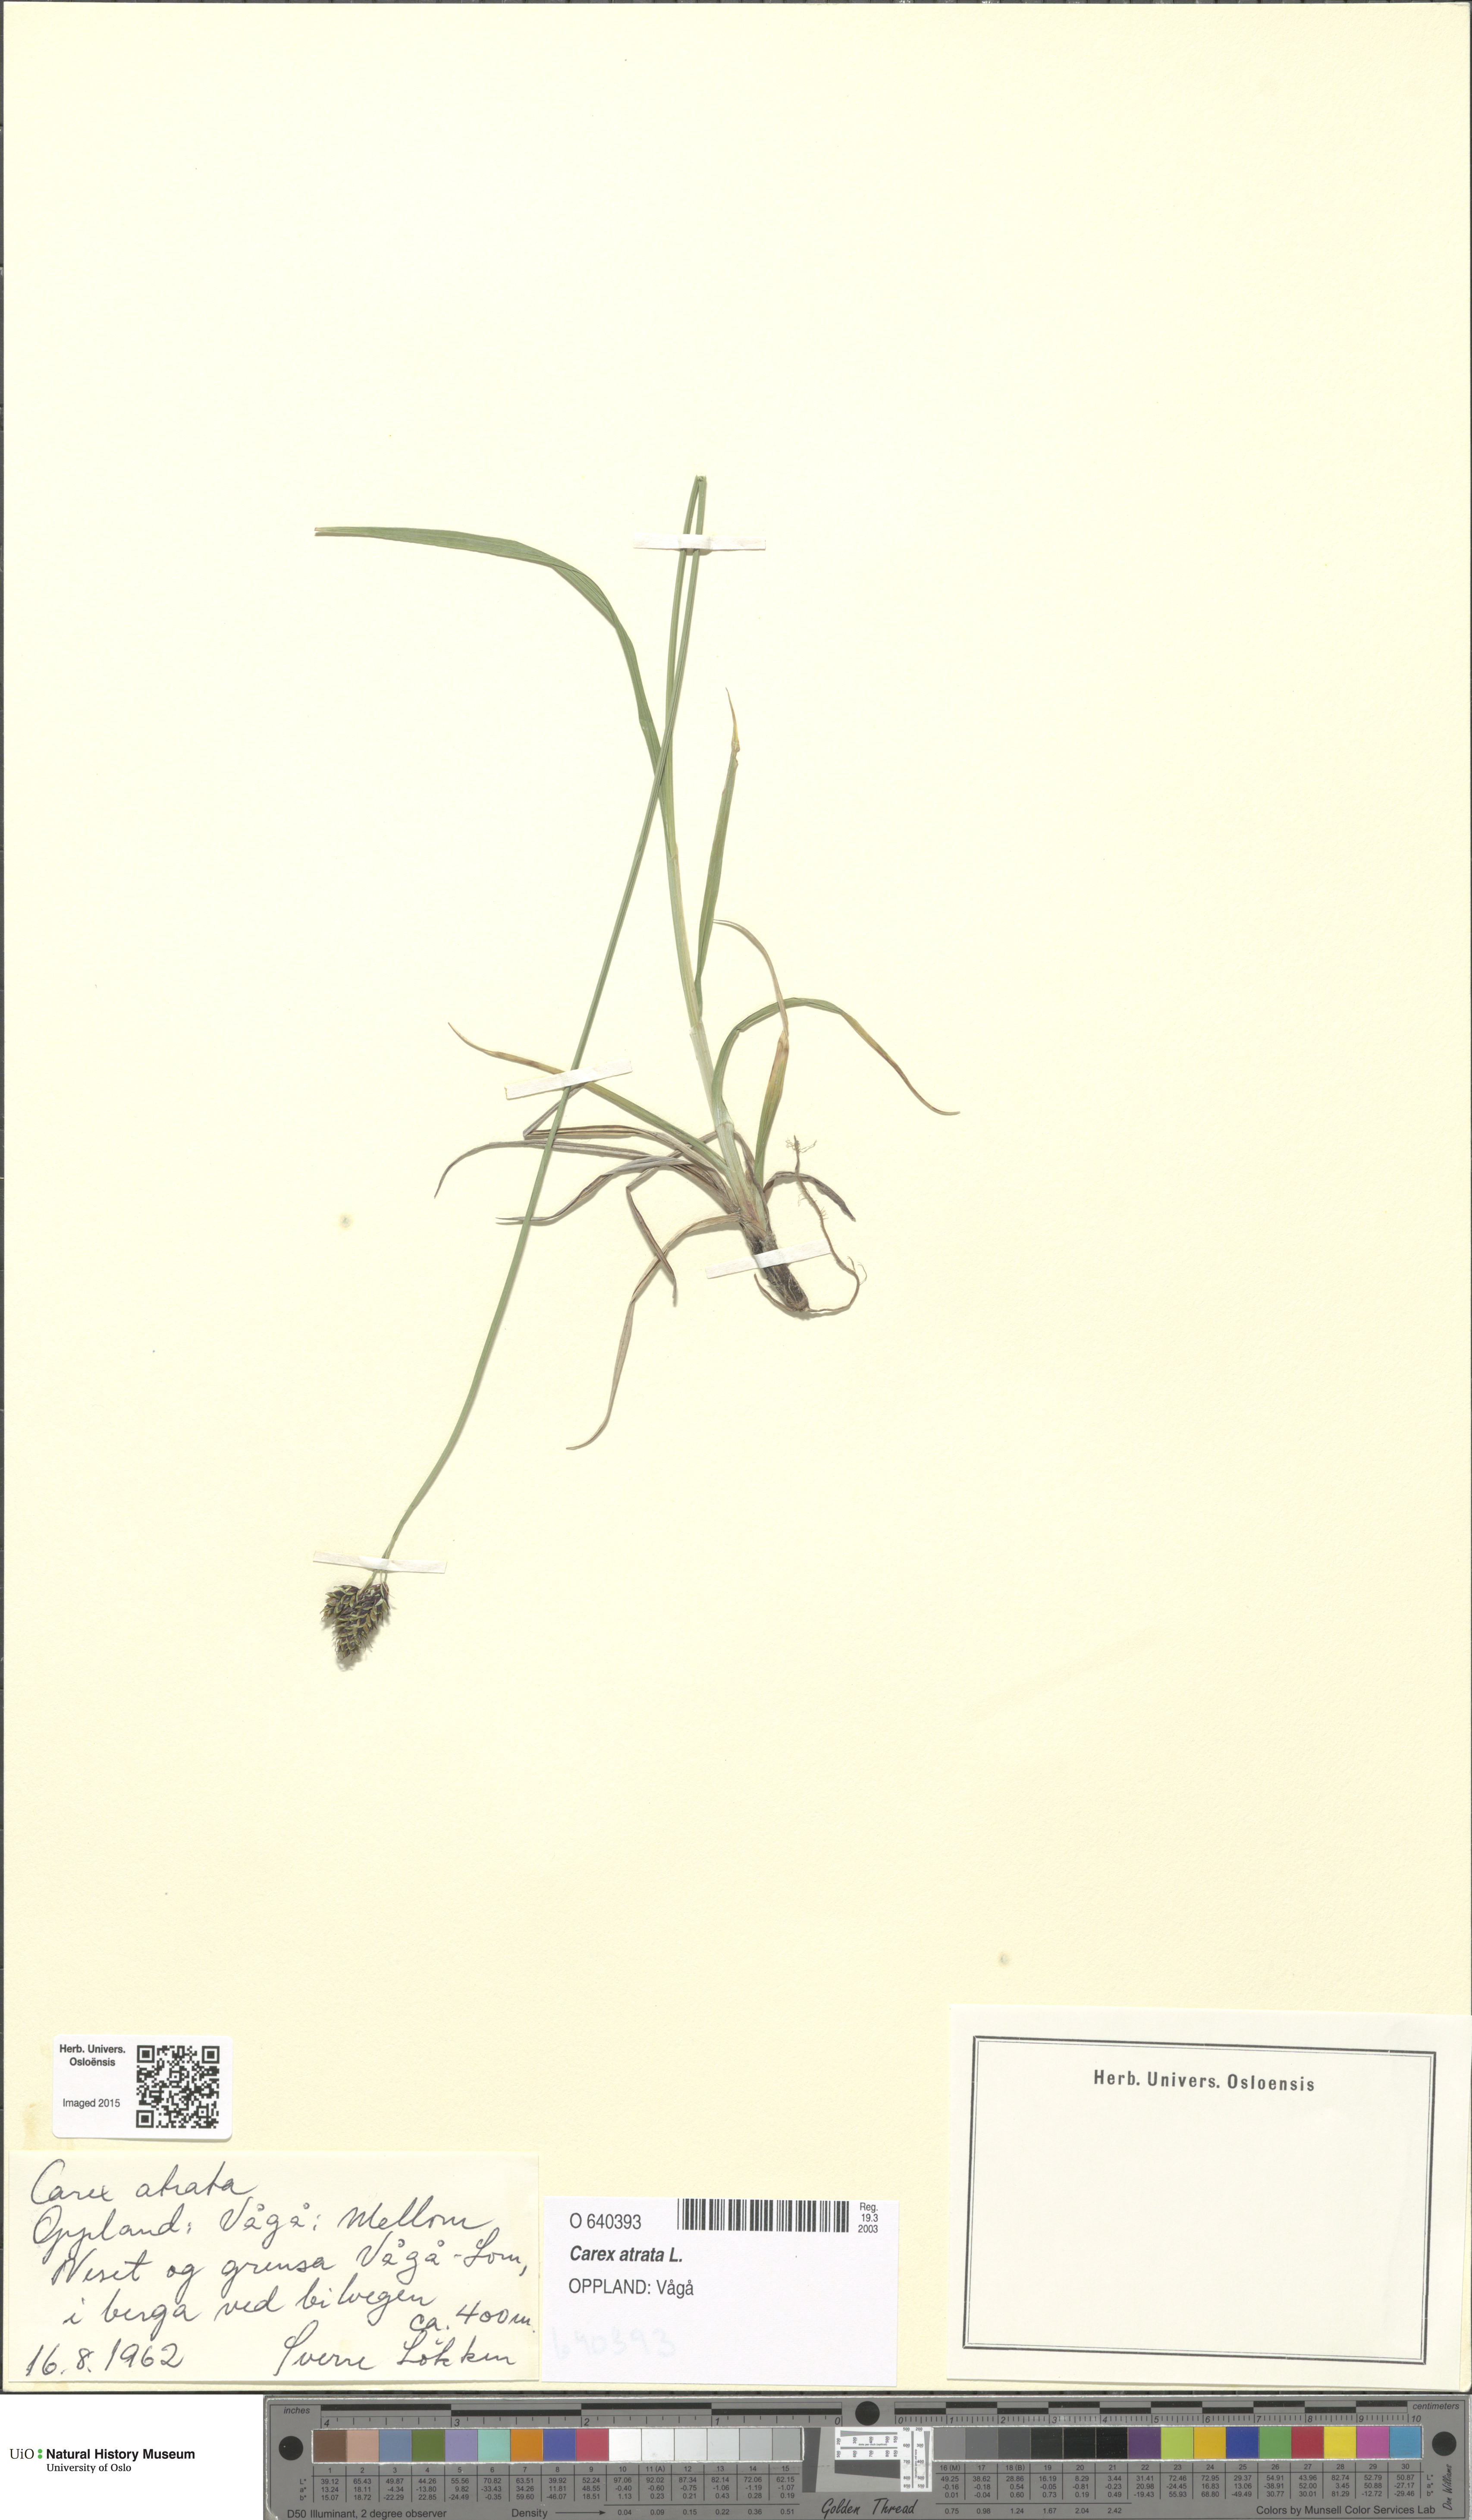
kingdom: Plantae
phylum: Tracheophyta
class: Liliopsida
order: Poales
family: Cyperaceae
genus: Carex
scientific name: Carex atrata
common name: Black alpine sedge
